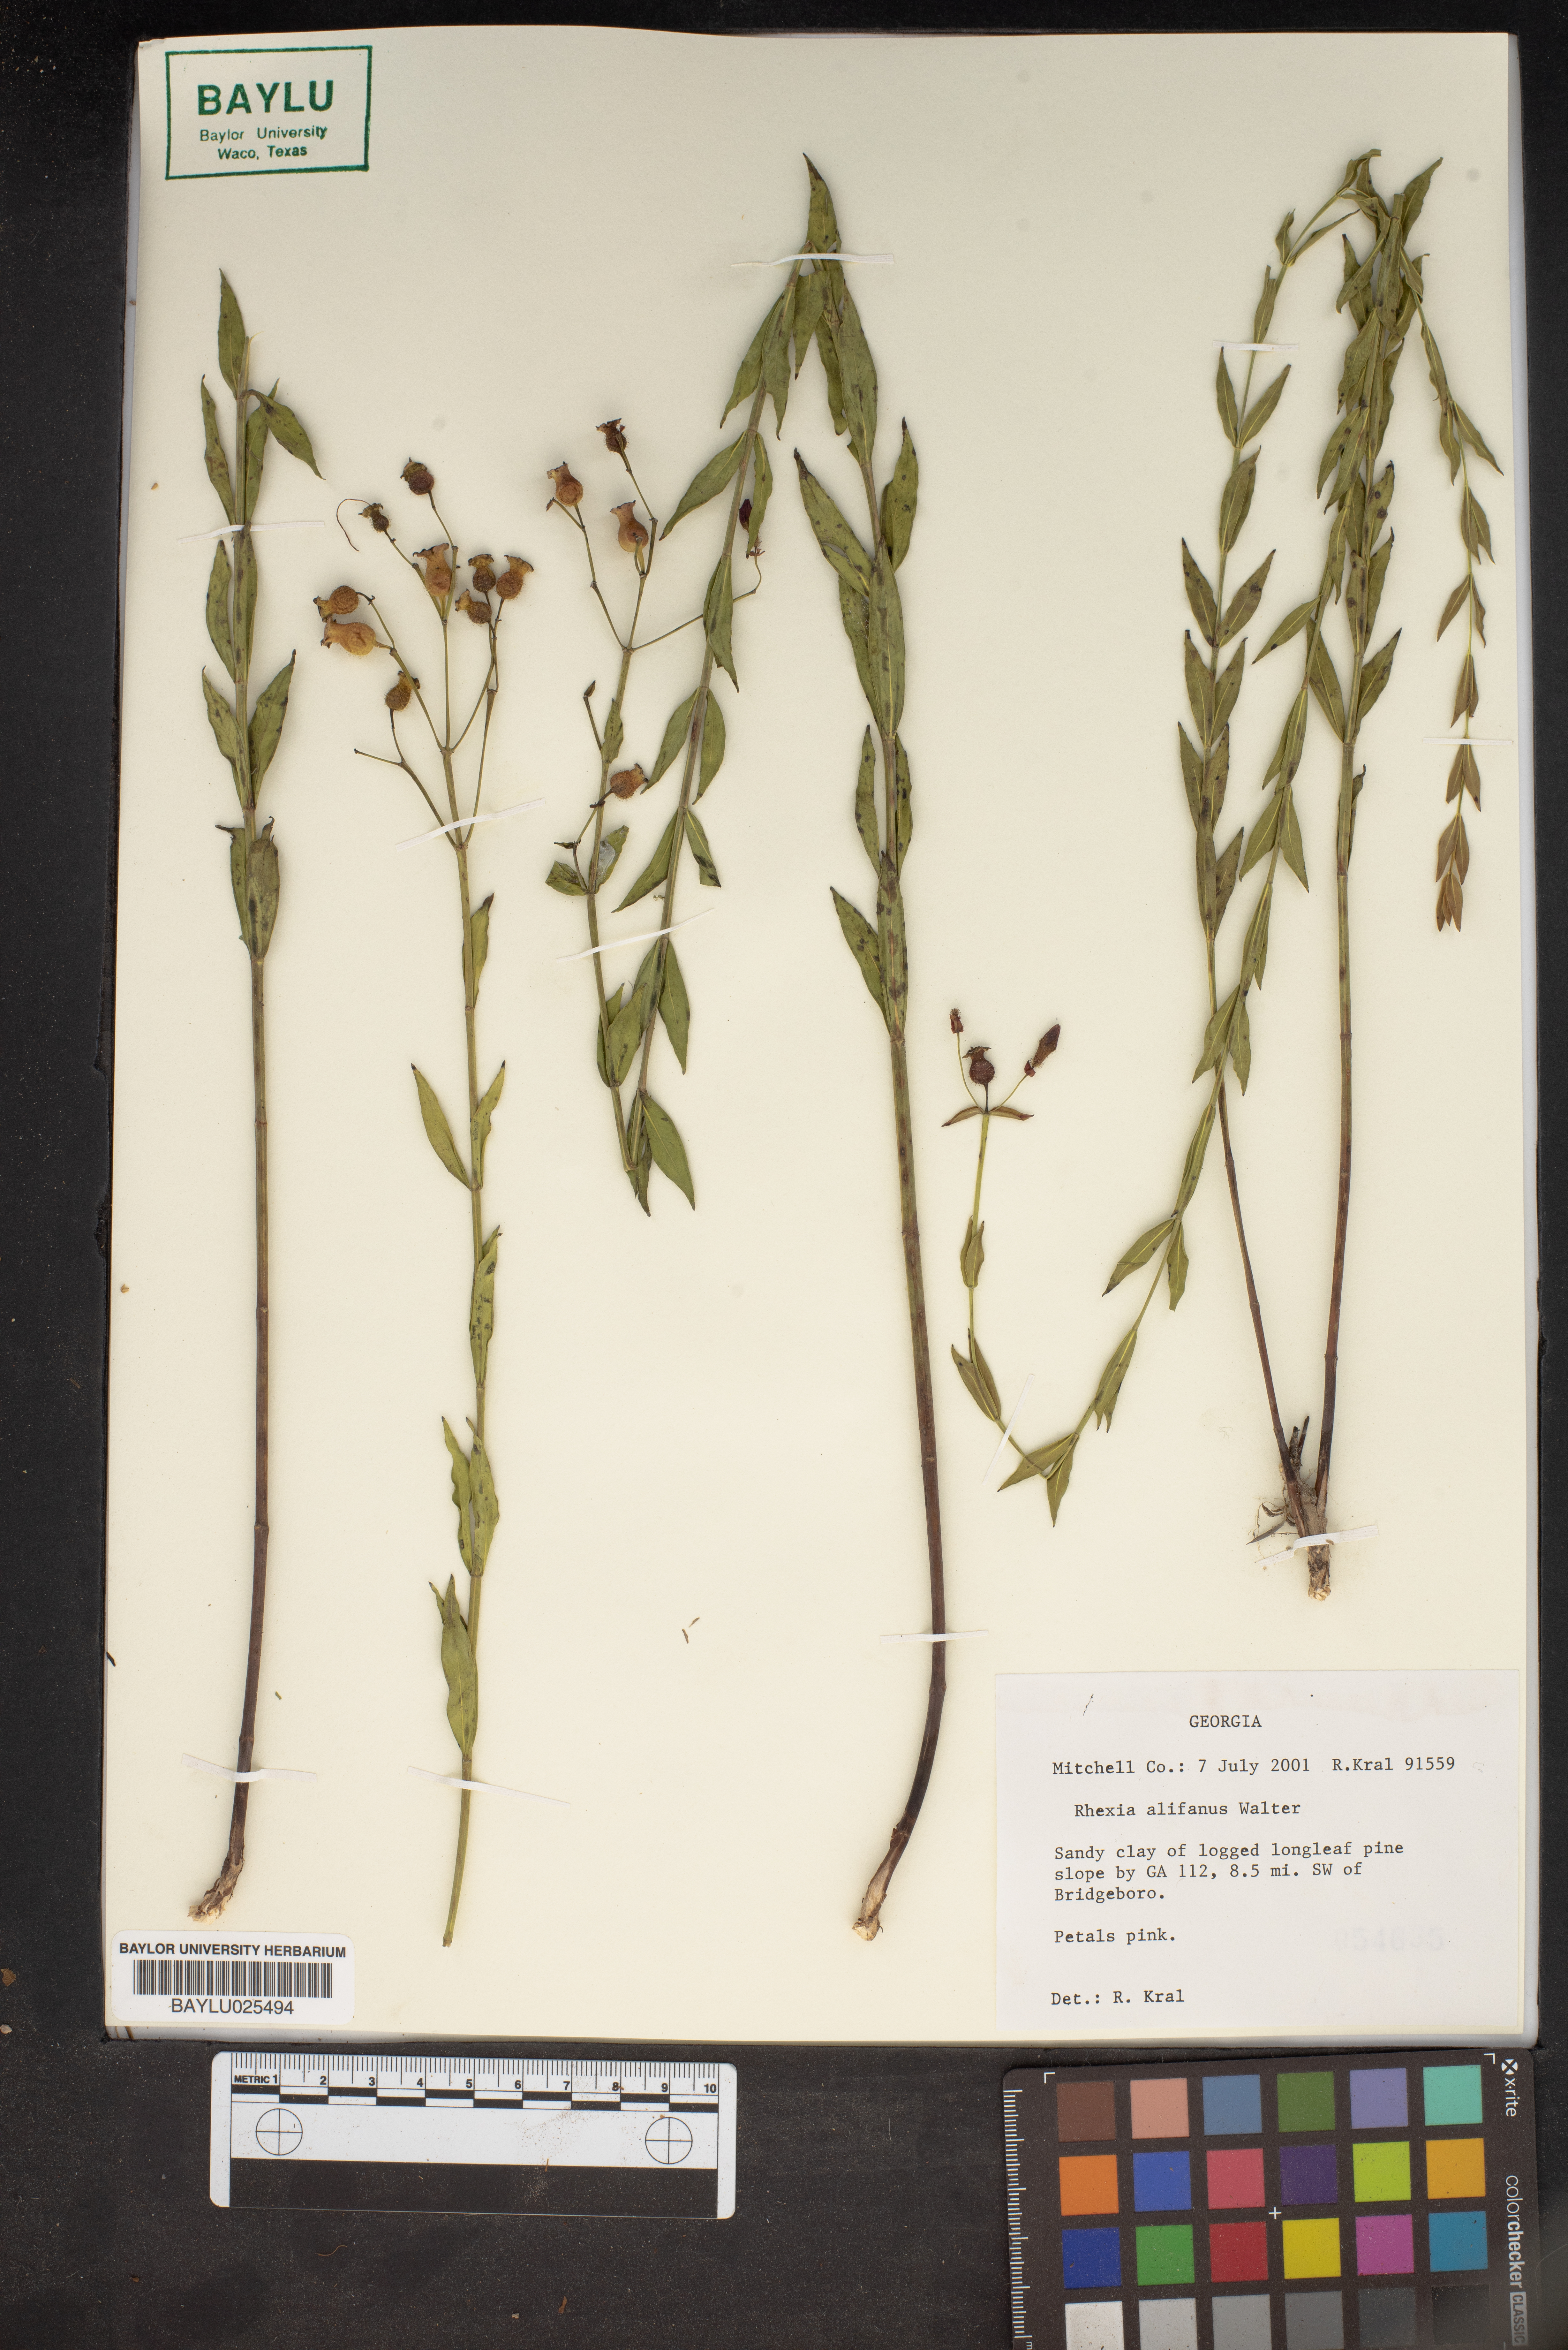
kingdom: Plantae
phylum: Tracheophyta
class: Magnoliopsida
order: Myrtales
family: Melastomataceae
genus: Rhexia
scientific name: Rhexia alifanus
